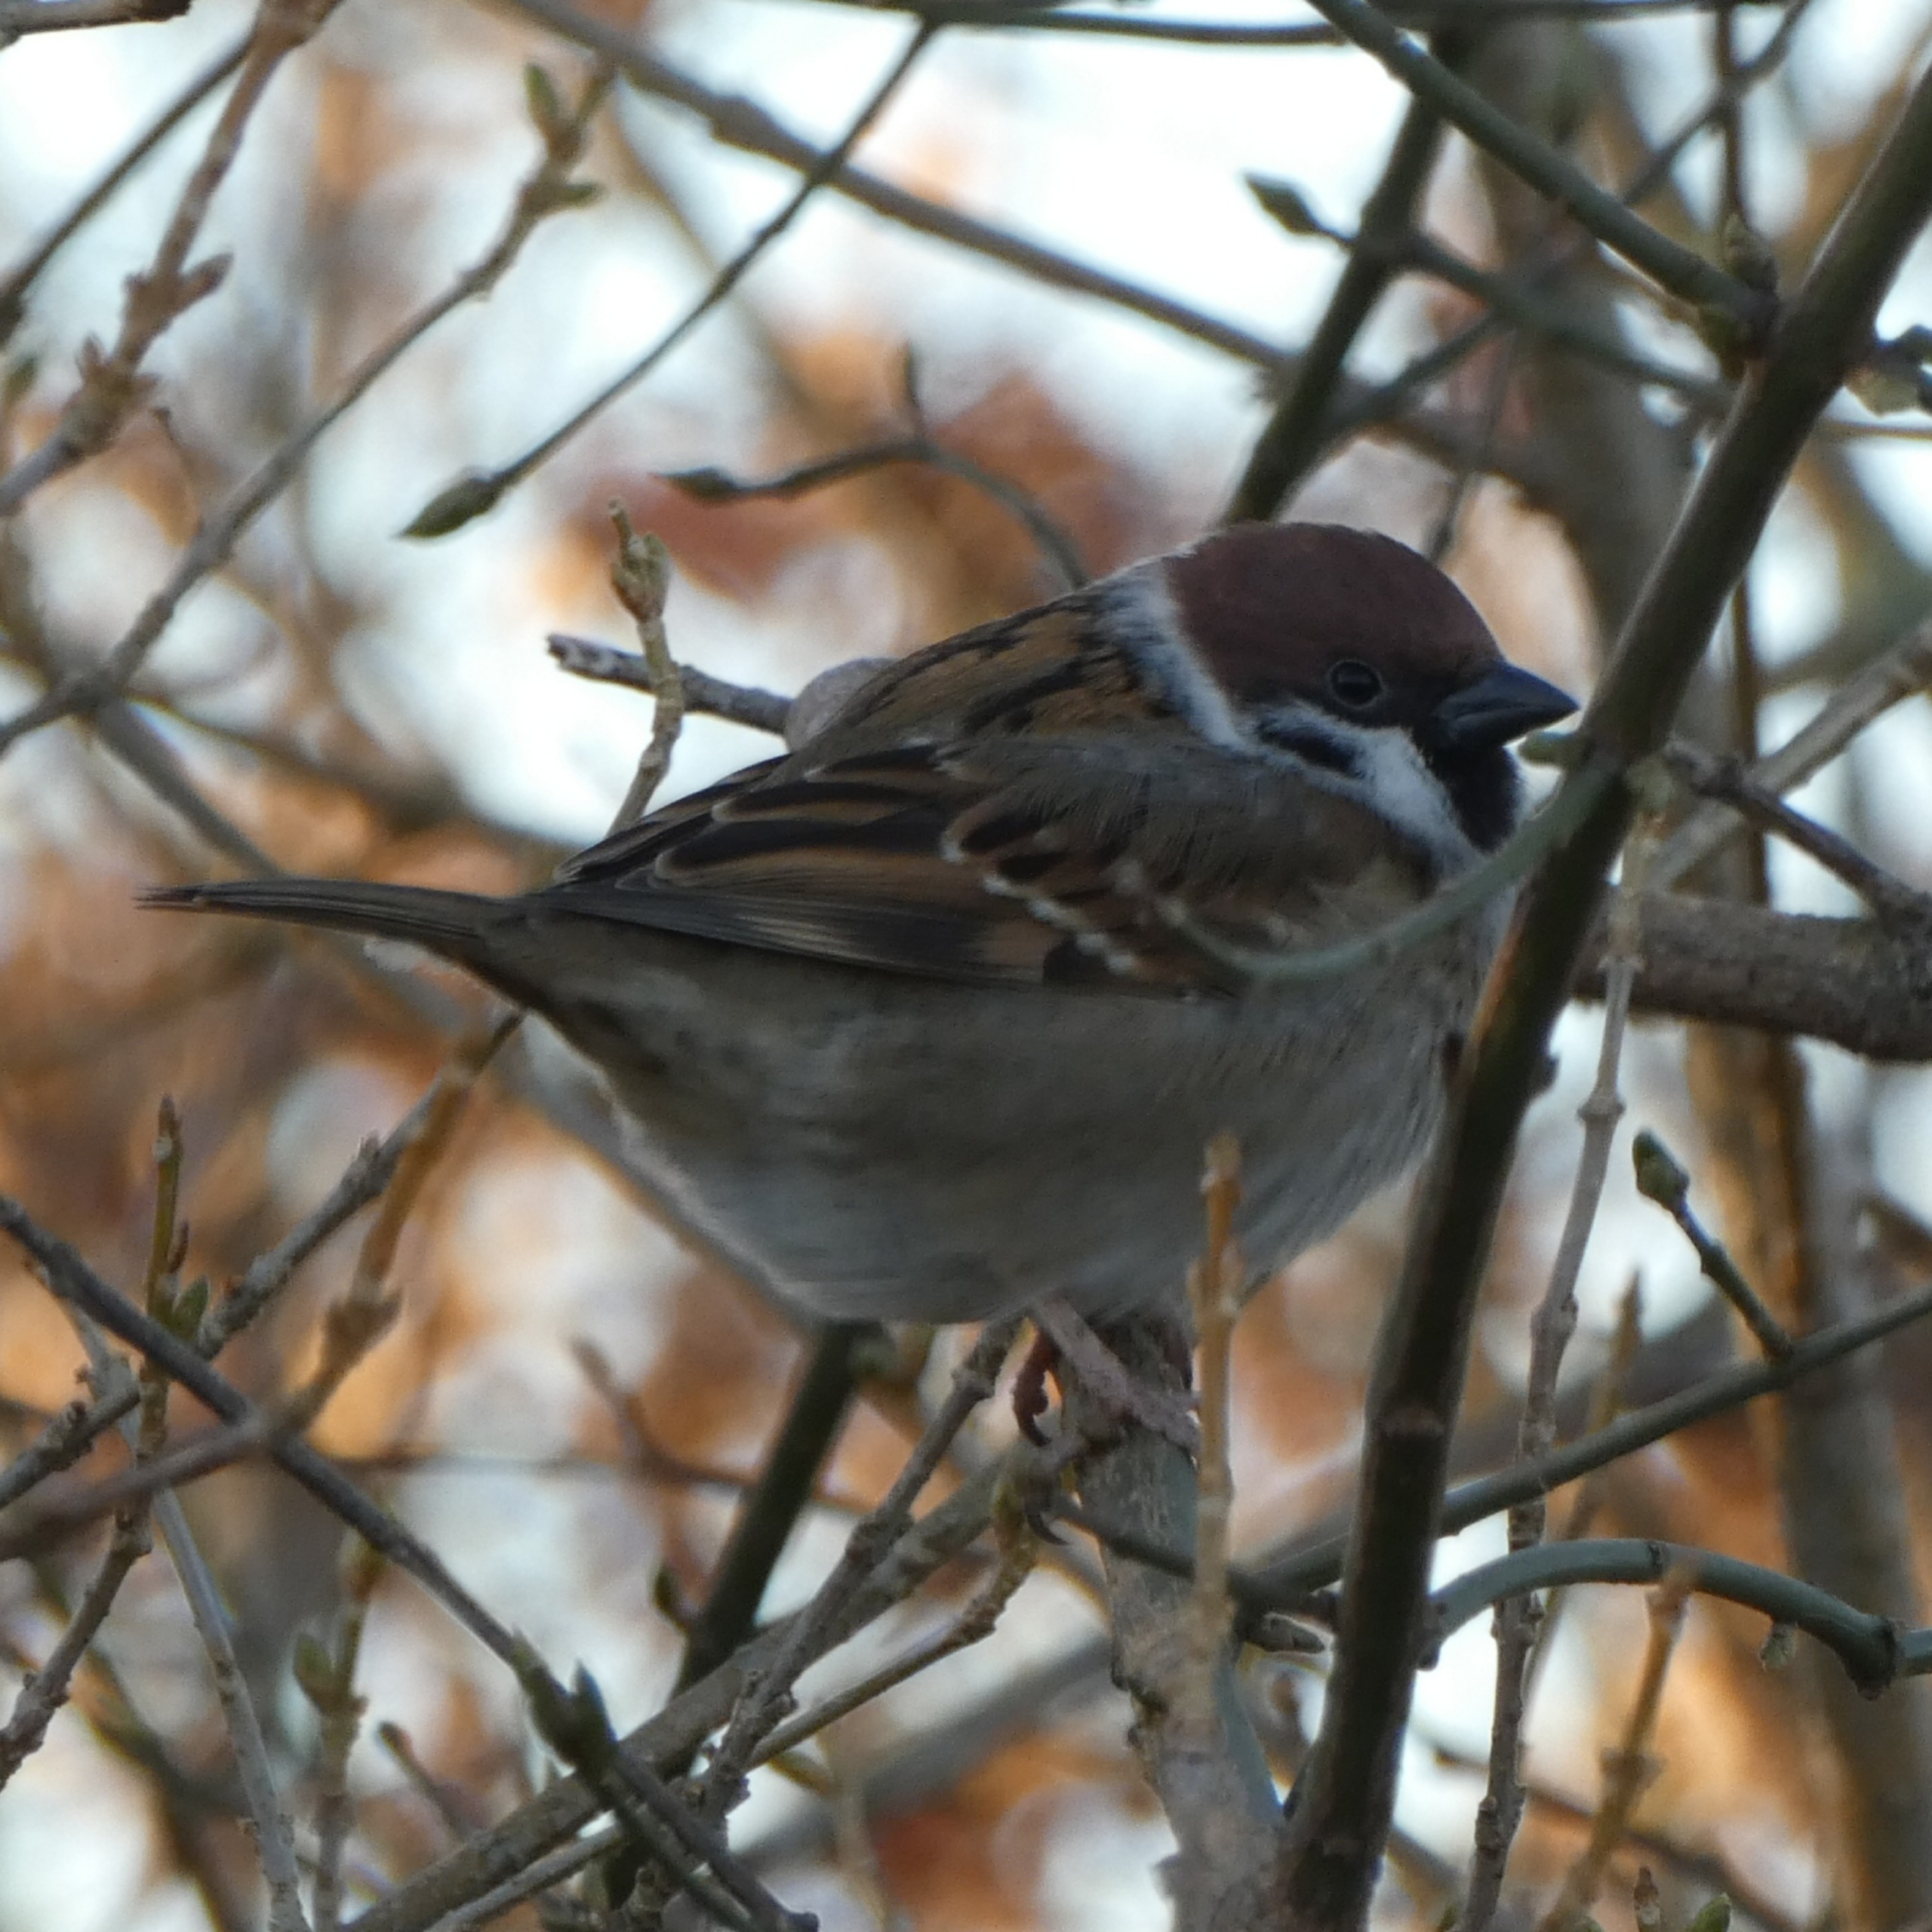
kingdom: Animalia
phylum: Chordata
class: Aves
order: Passeriformes
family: Passeridae
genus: Passer
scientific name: Passer montanus
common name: Skovspurv
